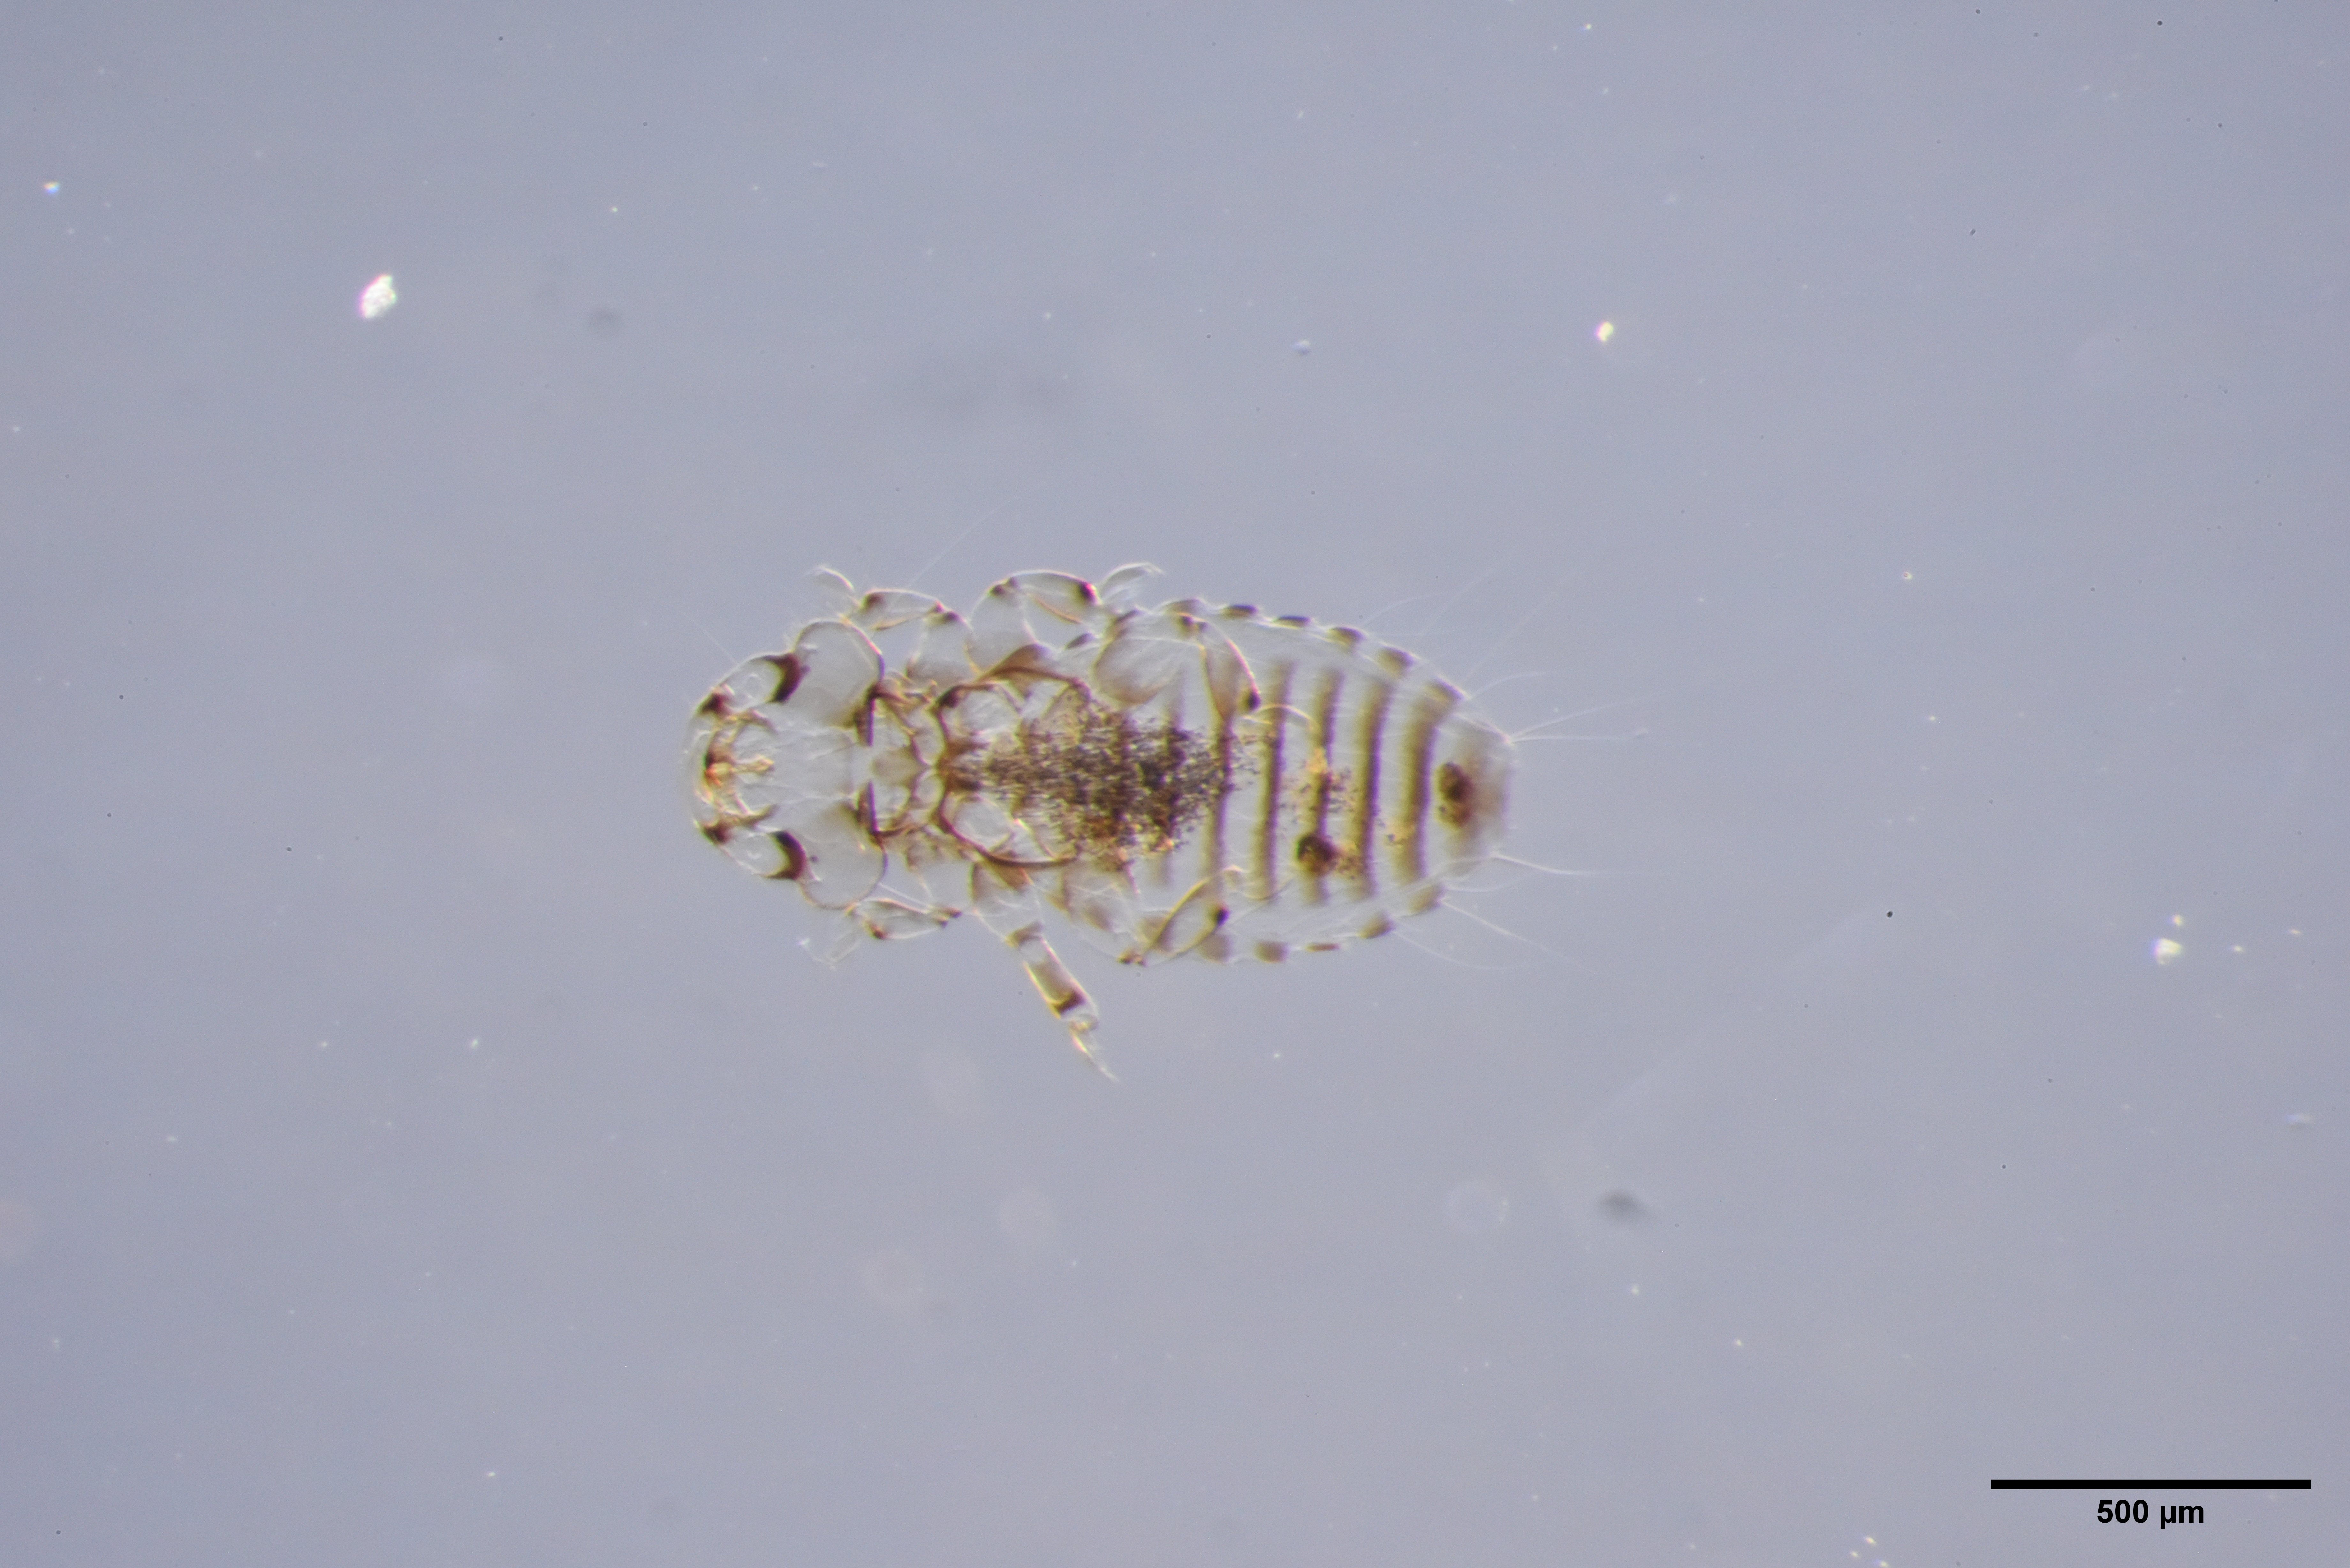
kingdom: Animalia
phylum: Arthropoda
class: Insecta
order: Psocodea
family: Menoponidae
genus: Myrsidea
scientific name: Myrsidea anathorax
